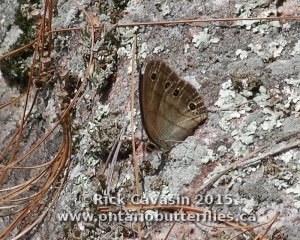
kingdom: Animalia
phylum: Arthropoda
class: Insecta
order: Lepidoptera
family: Nymphalidae
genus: Euptychia
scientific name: Euptychia cymela
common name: Little Wood Satyr
